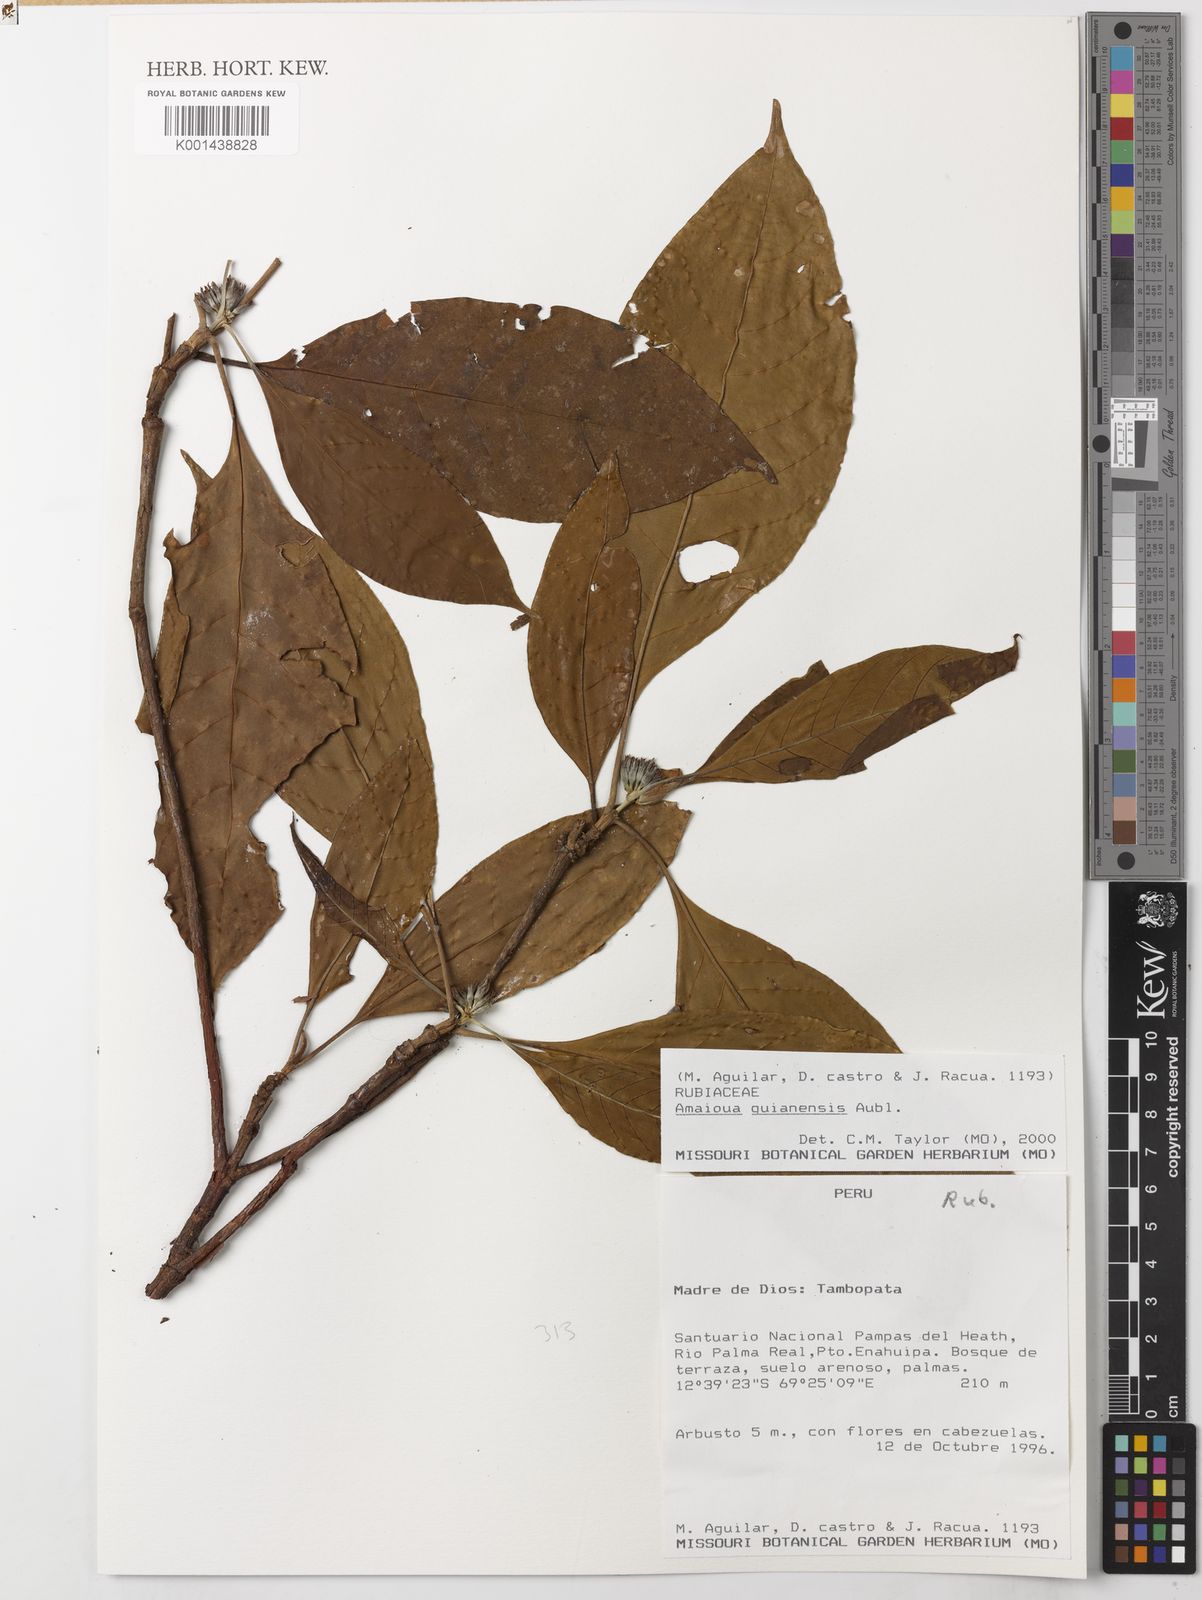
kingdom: Plantae
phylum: Tracheophyta
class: Magnoliopsida
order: Gentianales
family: Rubiaceae
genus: Amaioua
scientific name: Amaioua guianensis
